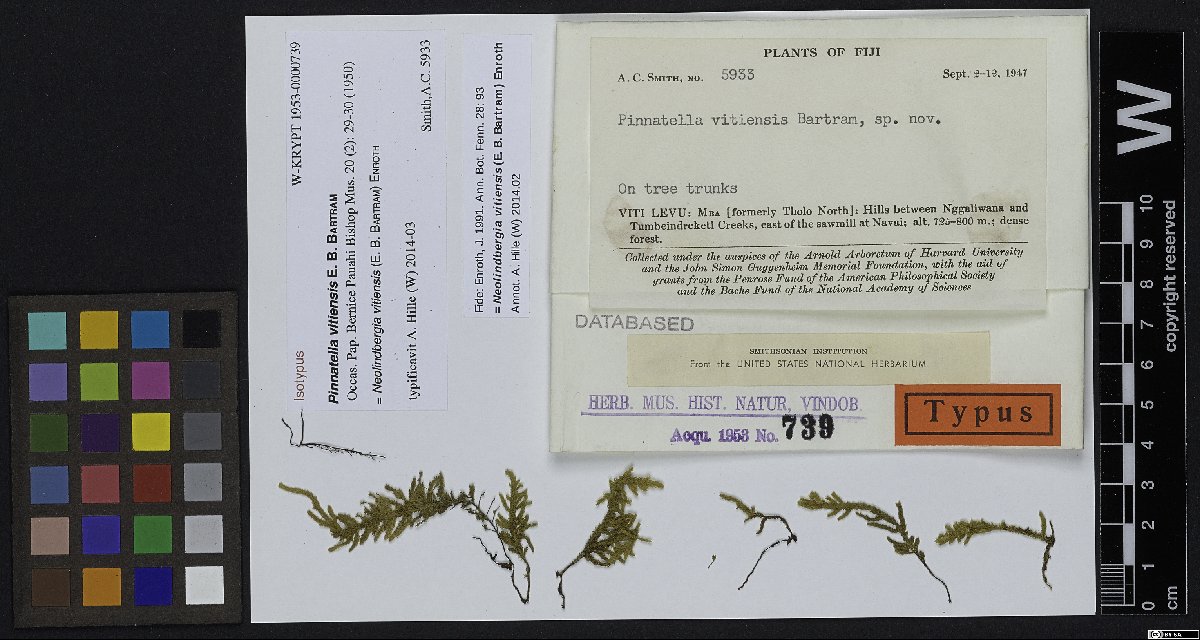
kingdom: Plantae
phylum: Bryophyta
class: Bryopsida
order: Hypnales
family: Pterobryaceae
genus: Neolindbergia
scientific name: Neolindbergia vitiensis
